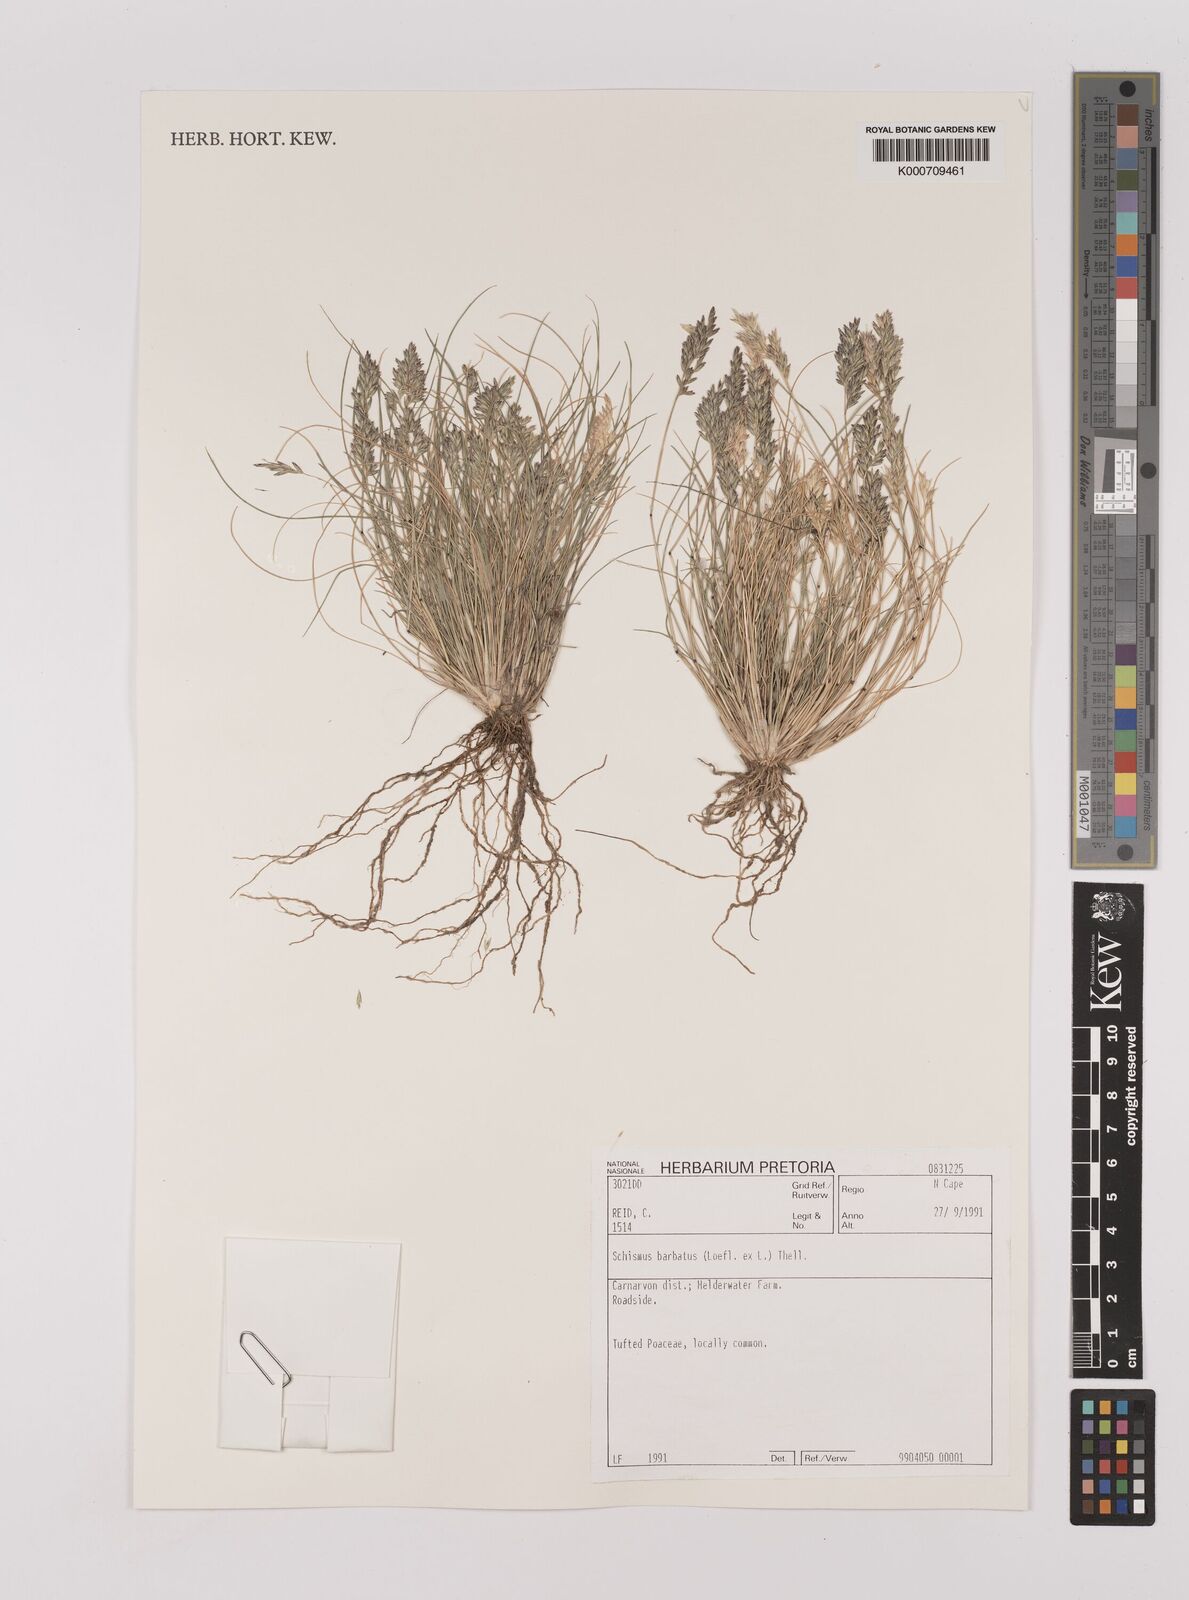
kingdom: Plantae
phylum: Tracheophyta
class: Liliopsida
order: Poales
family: Poaceae
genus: Schismus
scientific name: Schismus barbatus
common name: Kelch-grass
